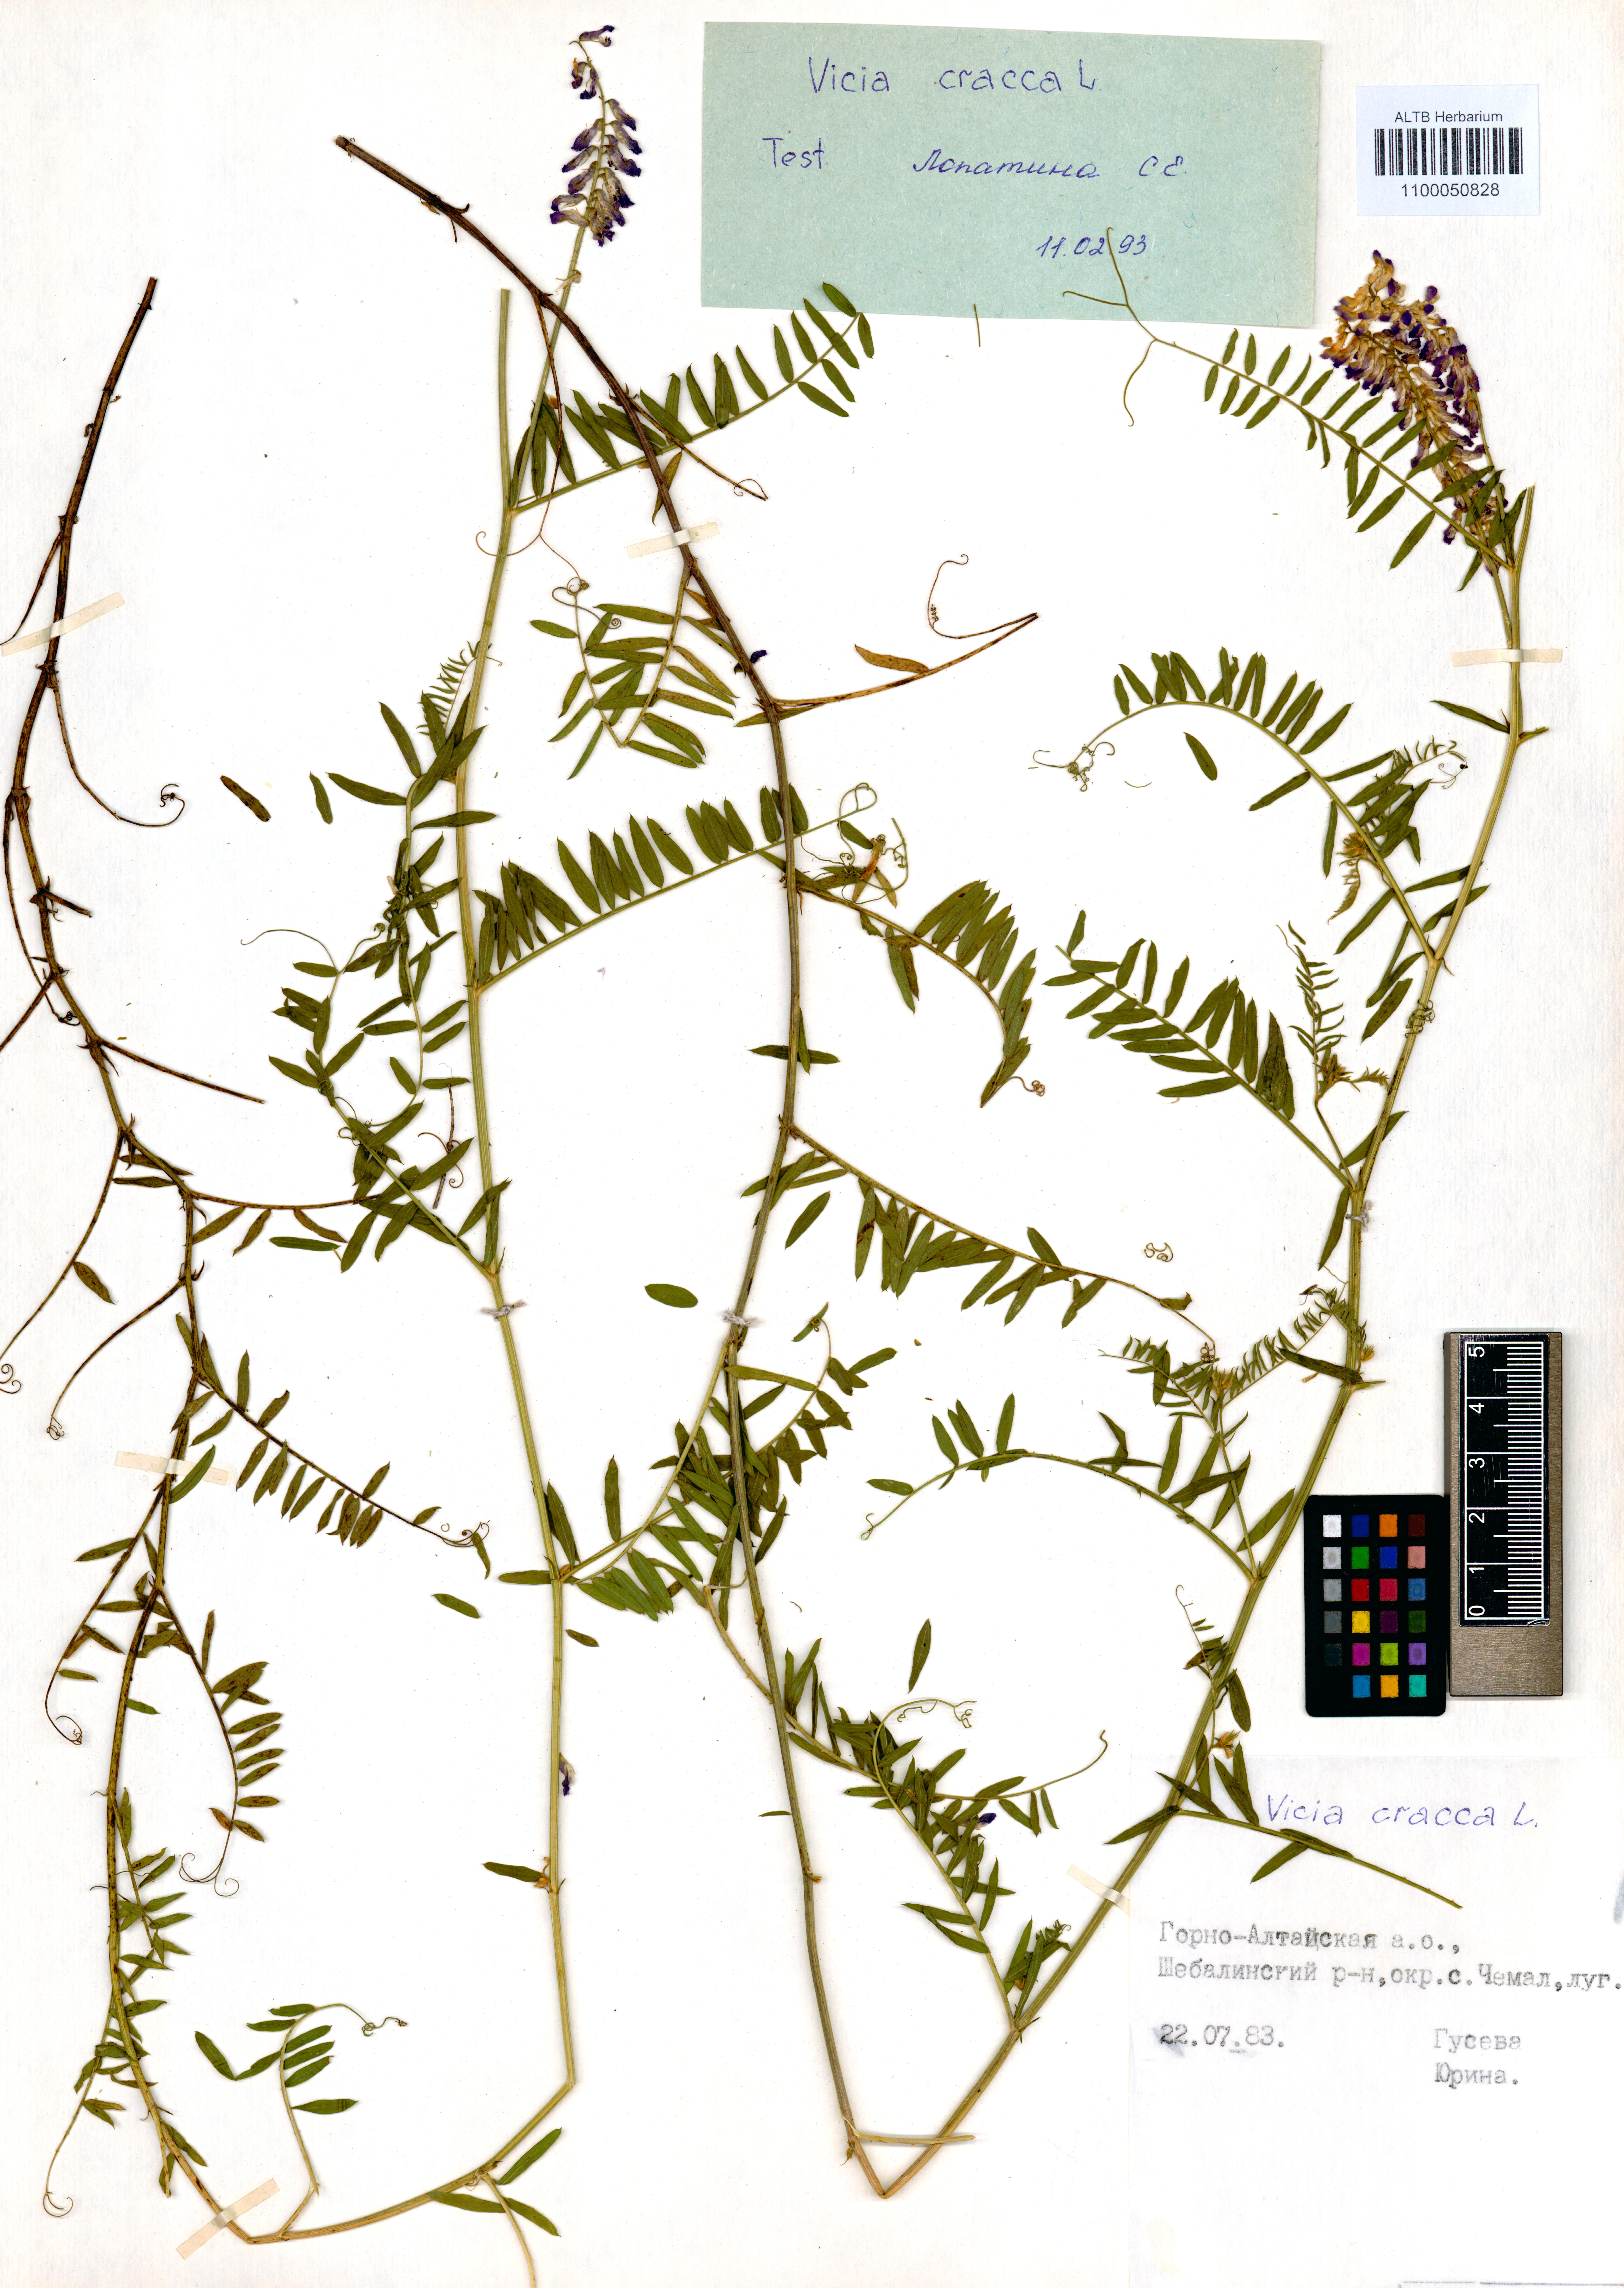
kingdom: Plantae
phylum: Tracheophyta
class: Magnoliopsida
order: Fabales
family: Fabaceae
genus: Vicia
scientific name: Vicia cracca
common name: Bird vetch
